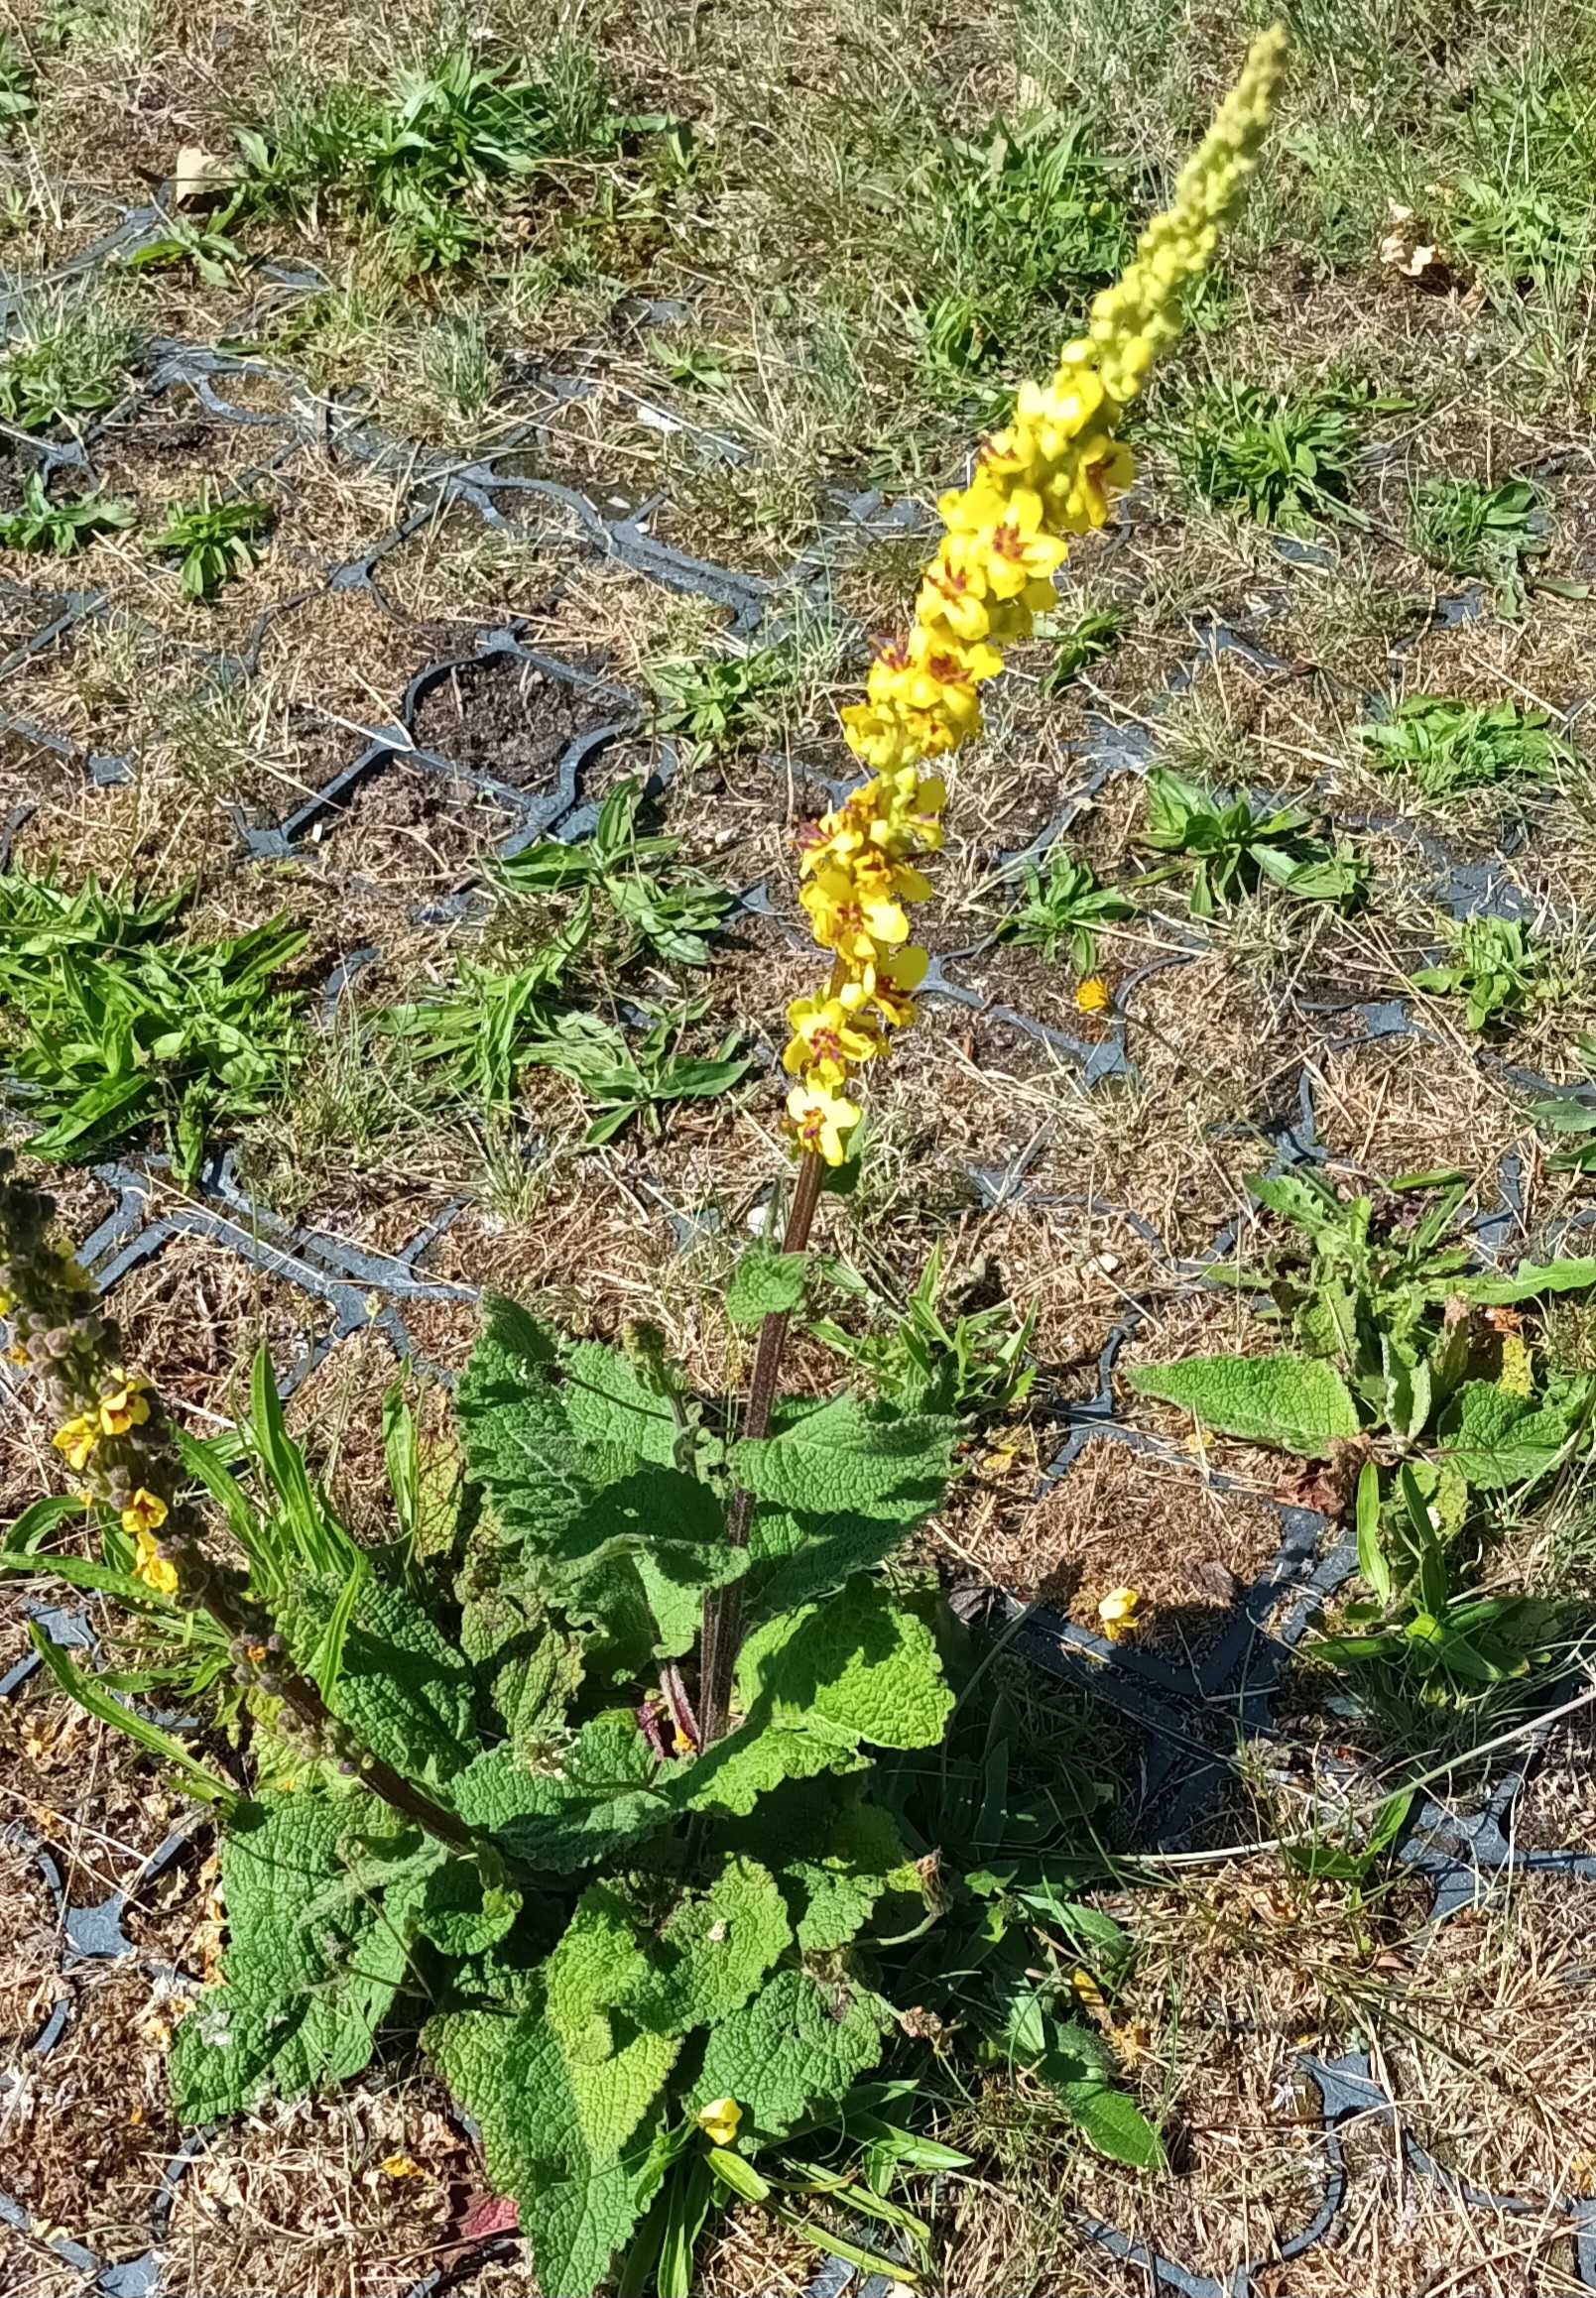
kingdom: Plantae
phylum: Tracheophyta
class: Magnoliopsida
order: Lamiales
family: Scrophulariaceae
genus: Verbascum
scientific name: Verbascum nigrum
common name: Mørk kongelys
